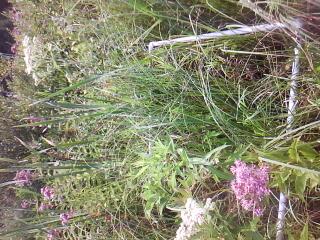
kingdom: Plantae
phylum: Tracheophyta
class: Liliopsida
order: Poales
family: Poaceae
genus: Leersia
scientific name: Leersia virginica
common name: White cutgrass
